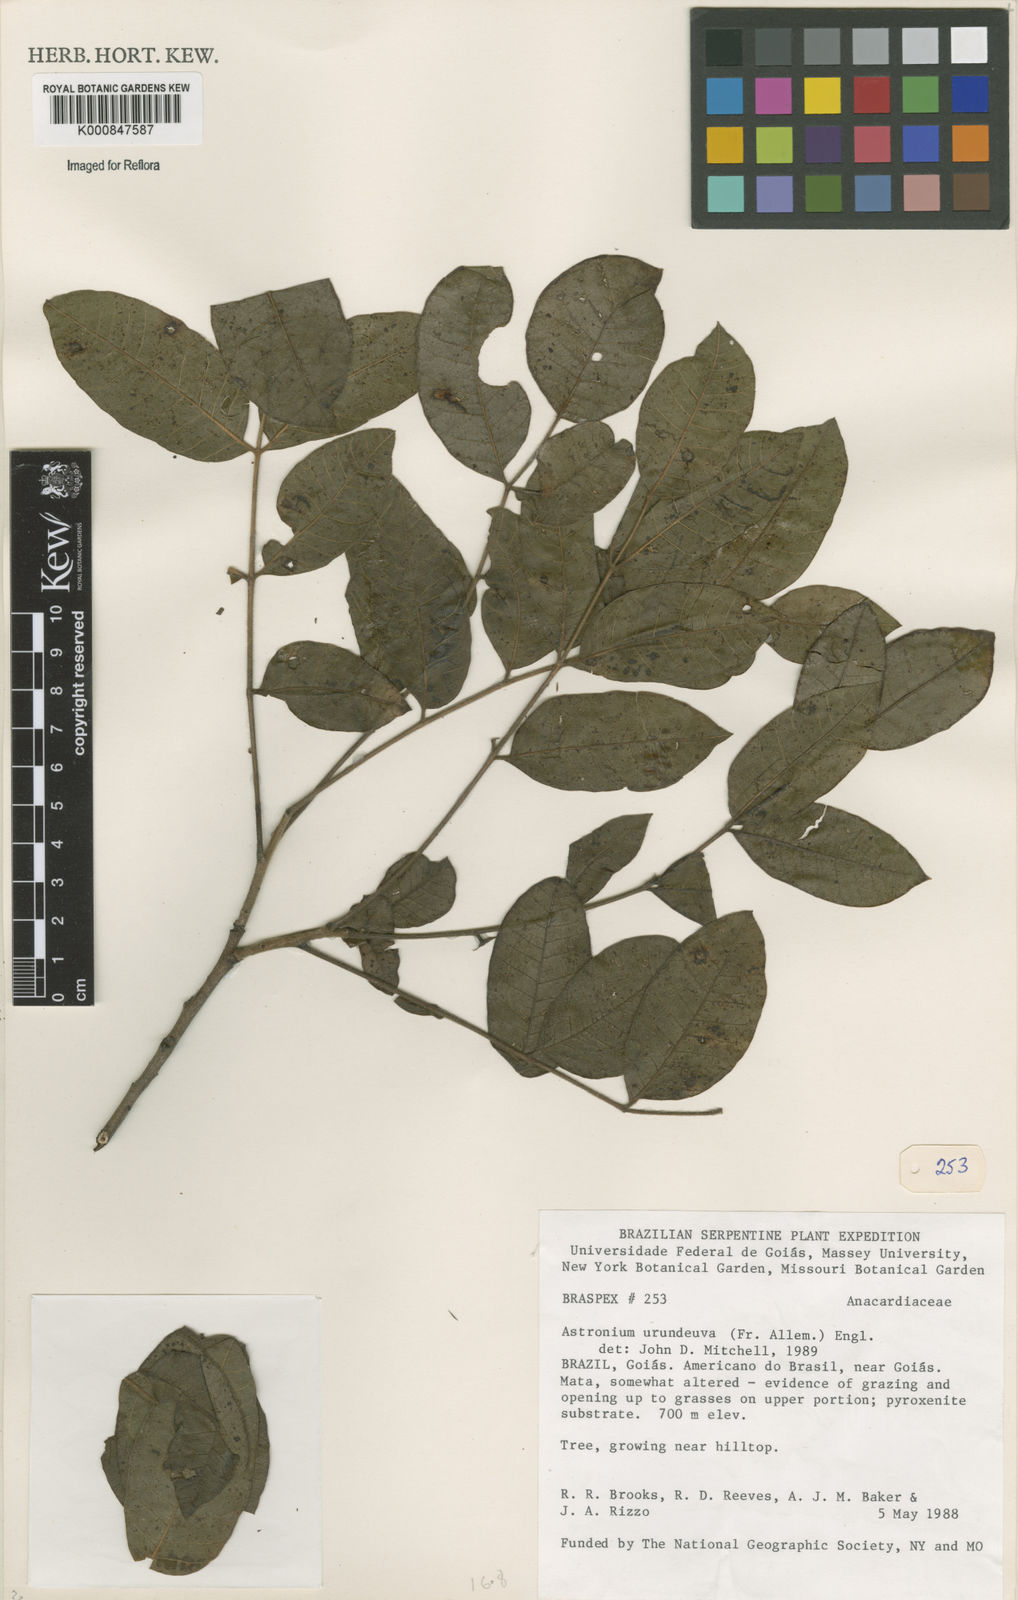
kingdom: Plantae
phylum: Tracheophyta
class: Magnoliopsida
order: Sapindales
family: Anacardiaceae
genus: Astronium
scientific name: Astronium
